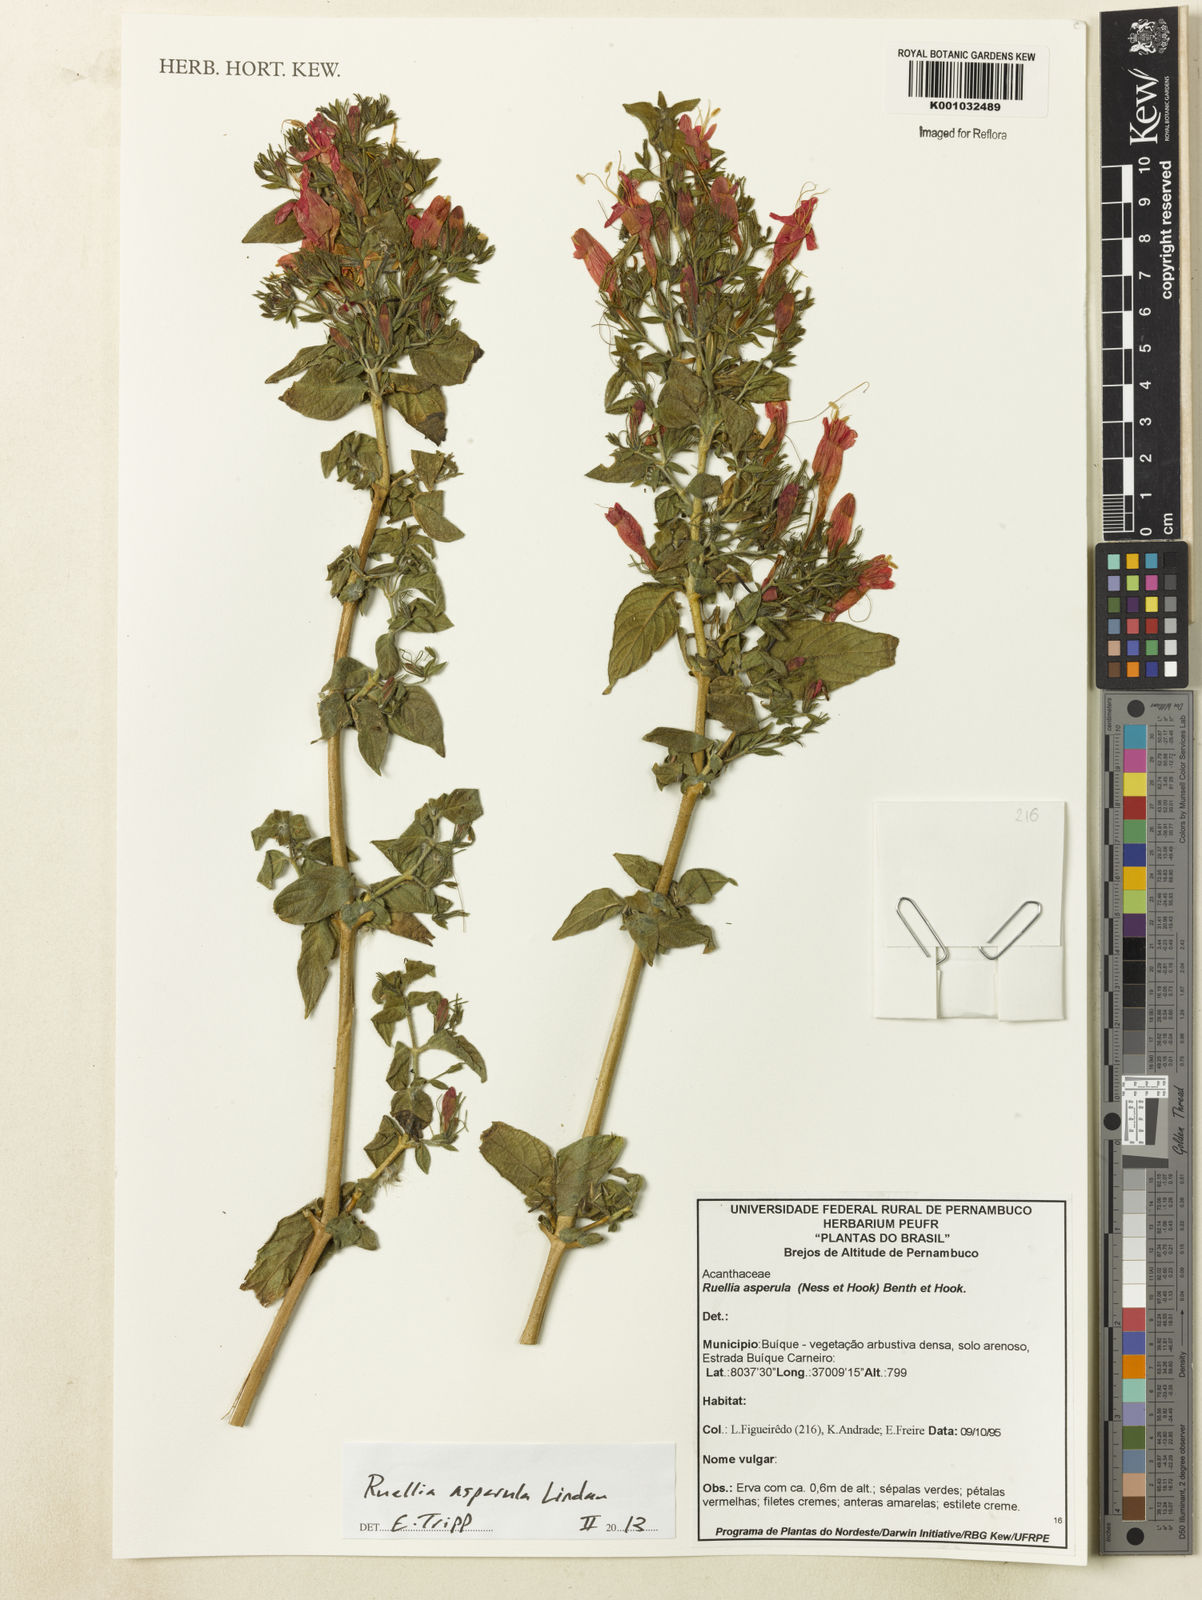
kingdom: Plantae
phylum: Tracheophyta
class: Magnoliopsida
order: Lamiales
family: Acanthaceae
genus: Ruellia
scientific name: Ruellia asperula
